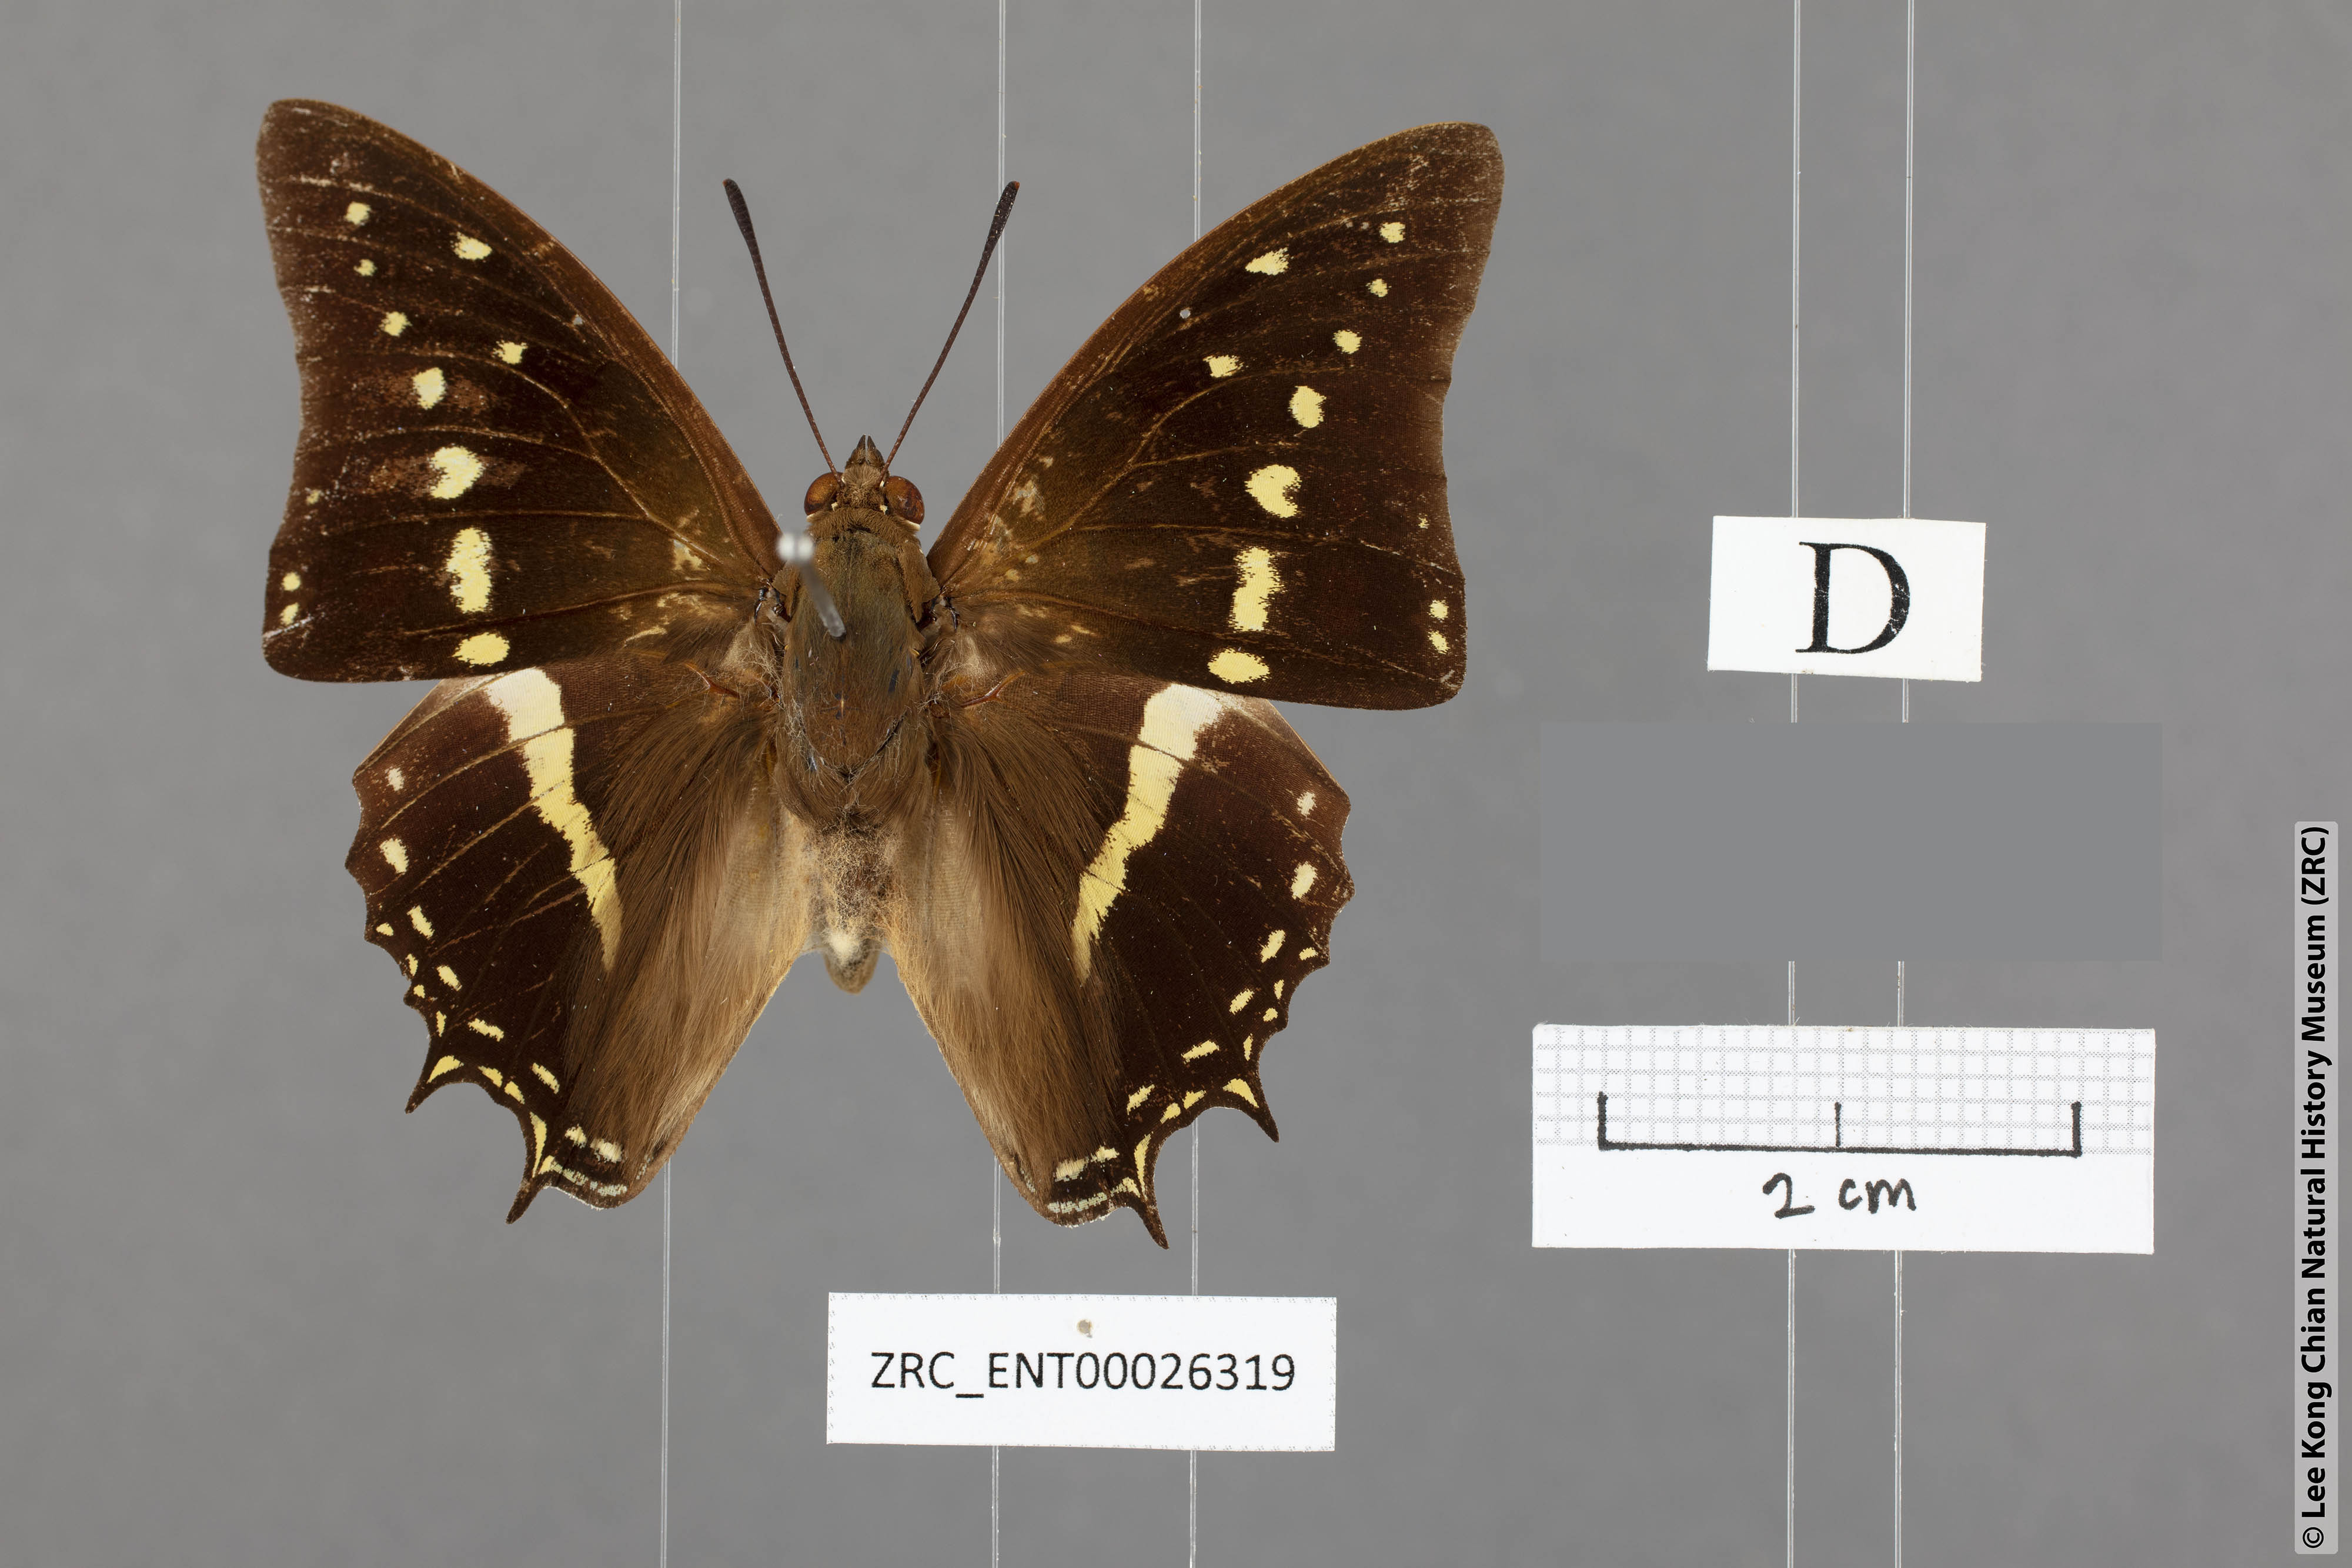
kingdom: Animalia
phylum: Arthropoda
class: Insecta
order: Lepidoptera
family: Nymphalidae
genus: Charaxes
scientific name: Charaxes solon
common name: Black rajah
